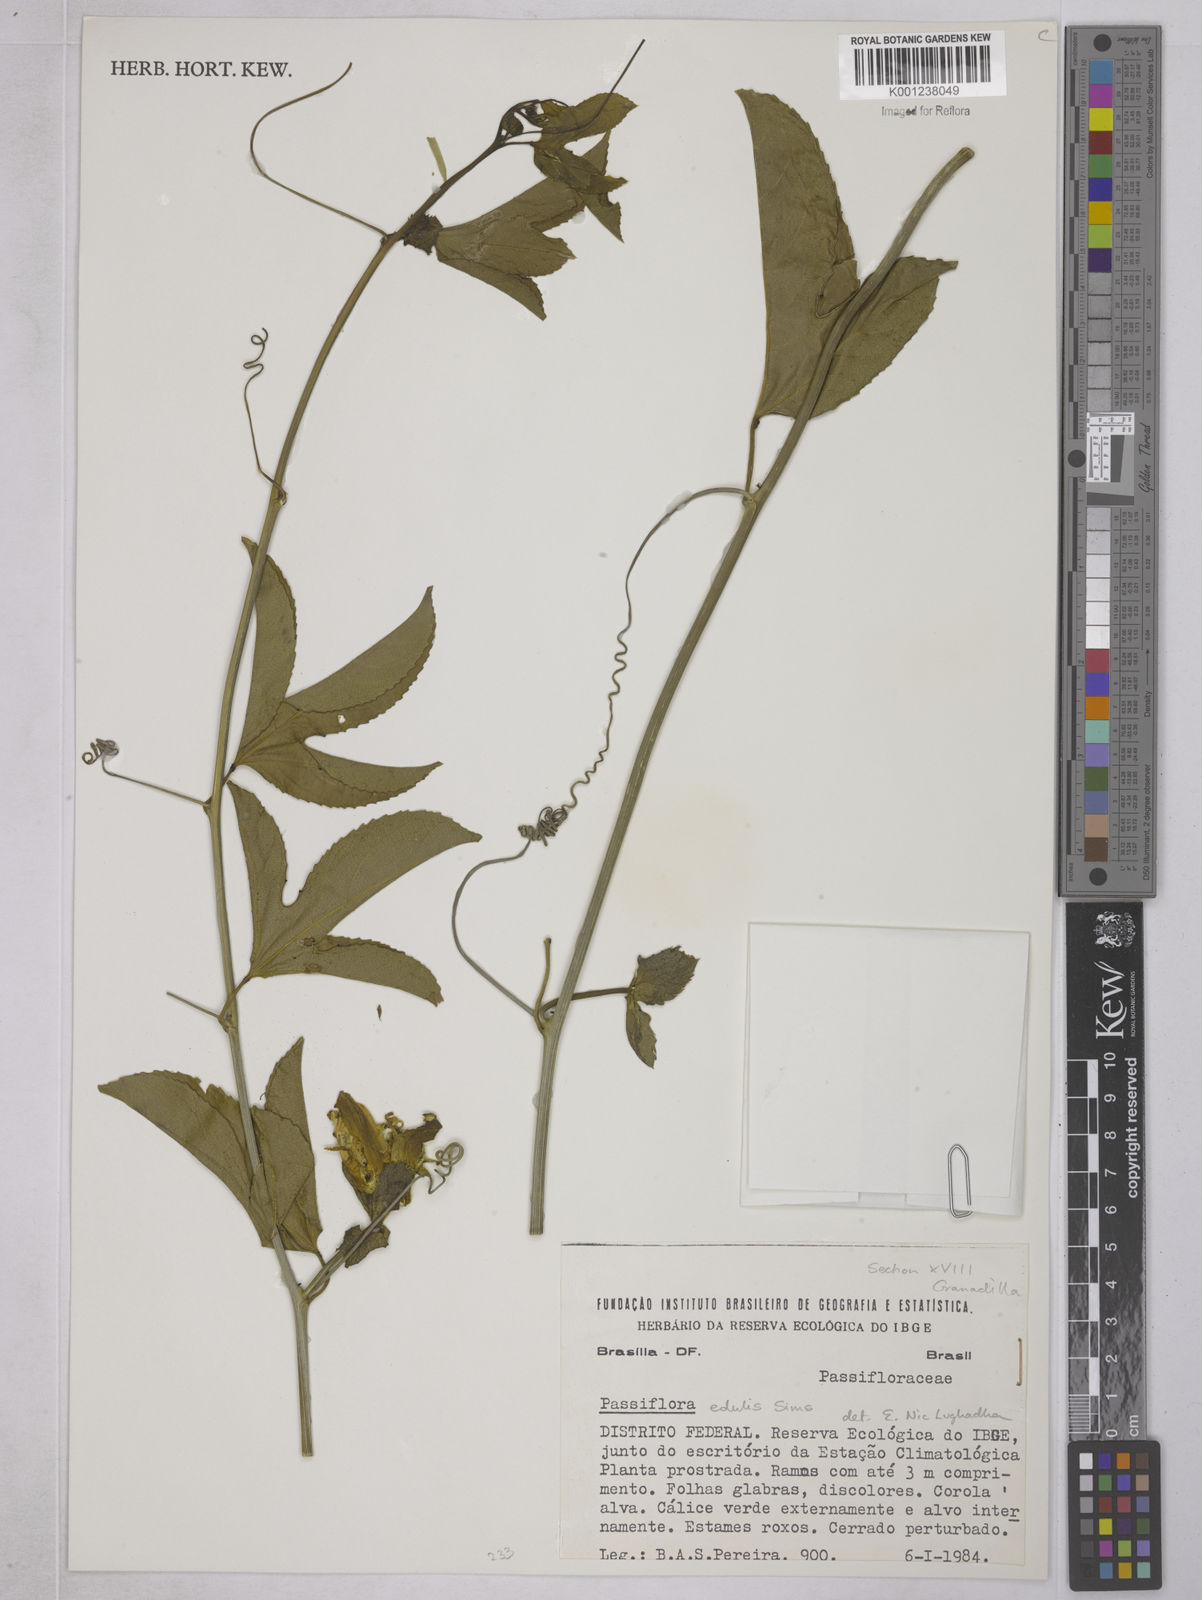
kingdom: Plantae
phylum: Tracheophyta
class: Magnoliopsida
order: Malpighiales
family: Passifloraceae
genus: Passiflora
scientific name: Passiflora edulis
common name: Purple granadilla
